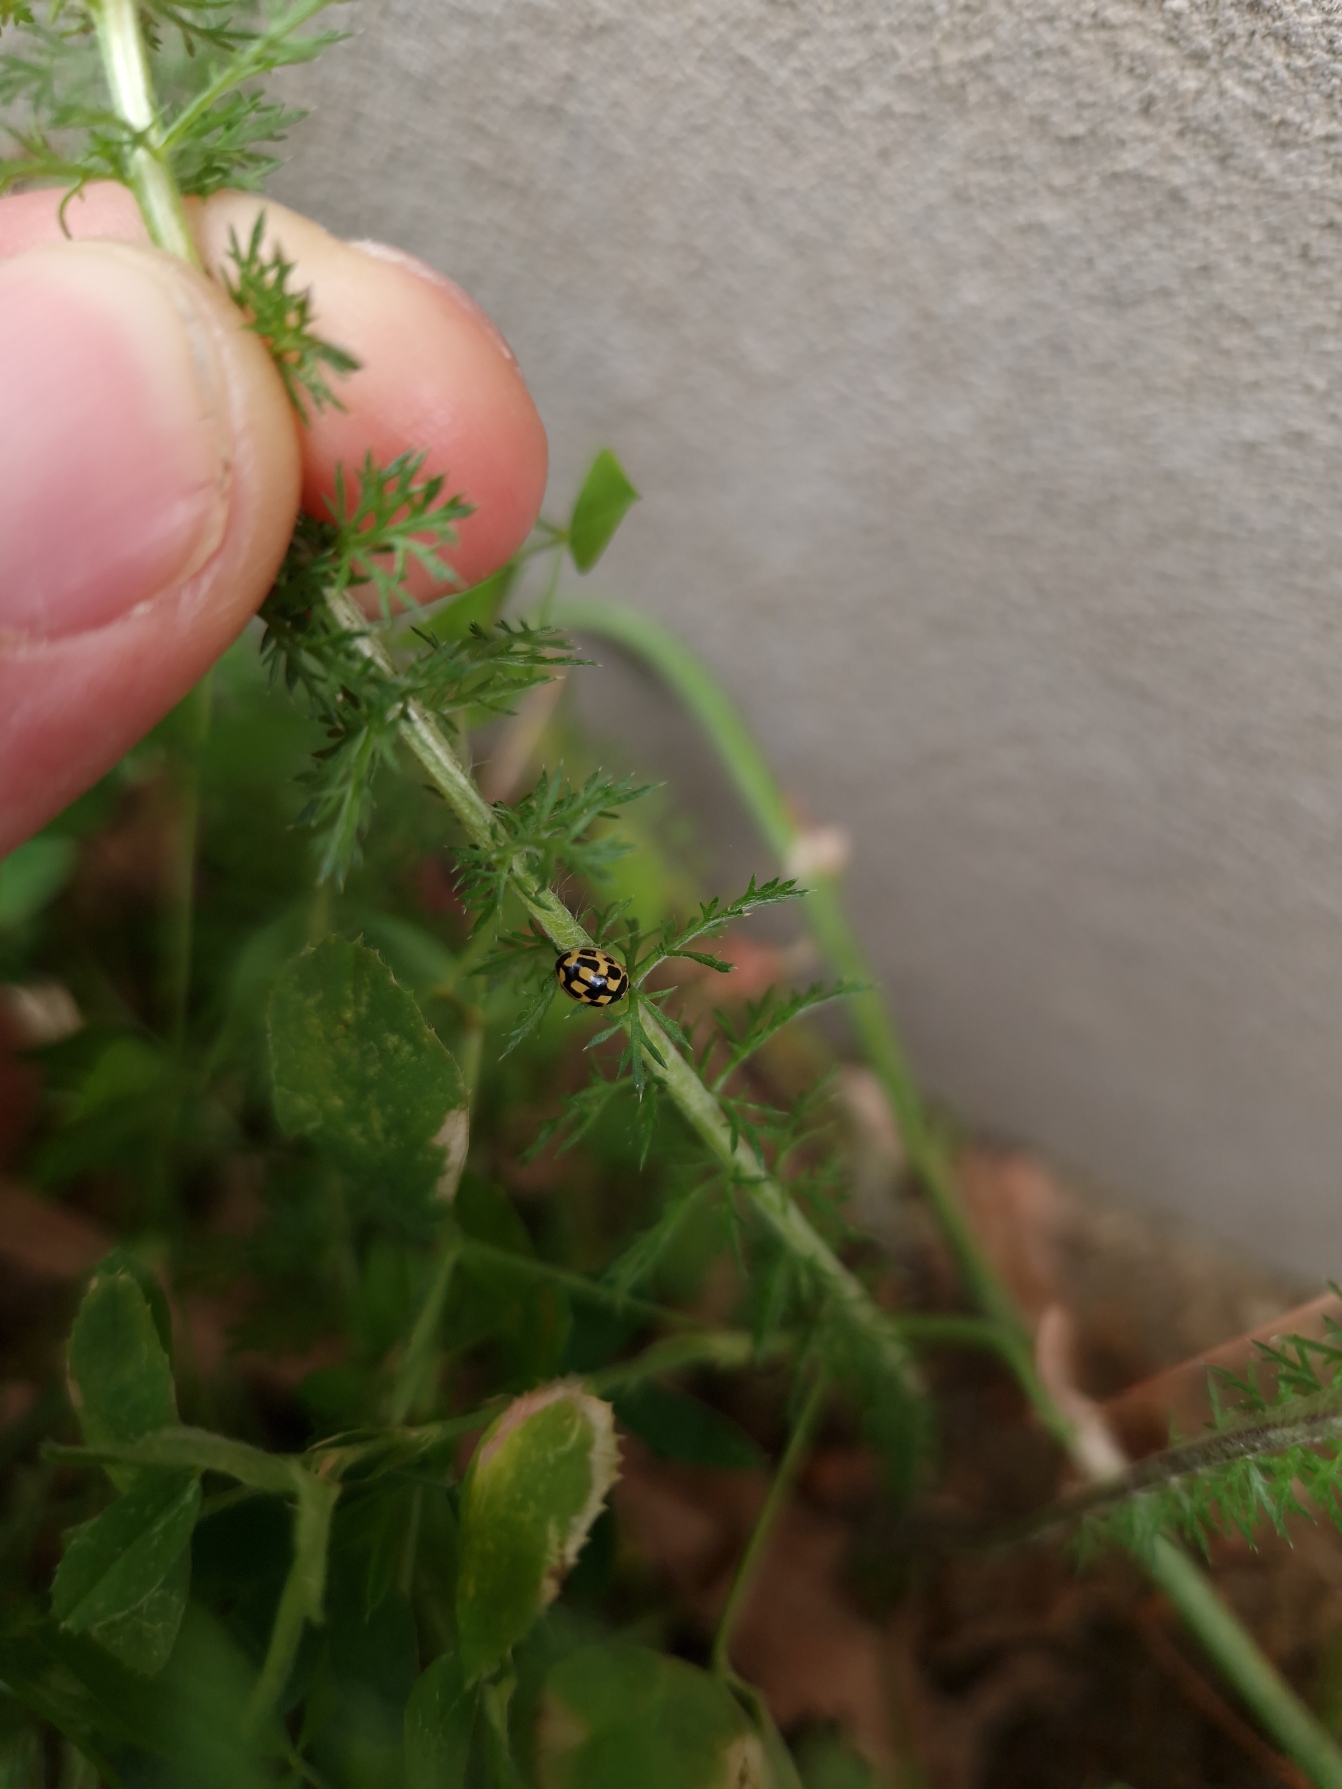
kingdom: Animalia
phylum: Arthropoda
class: Insecta
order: Coleoptera
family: Coccinellidae
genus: Propylaea
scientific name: Propylaea quatuordecimpunctata
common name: Skakbræt
